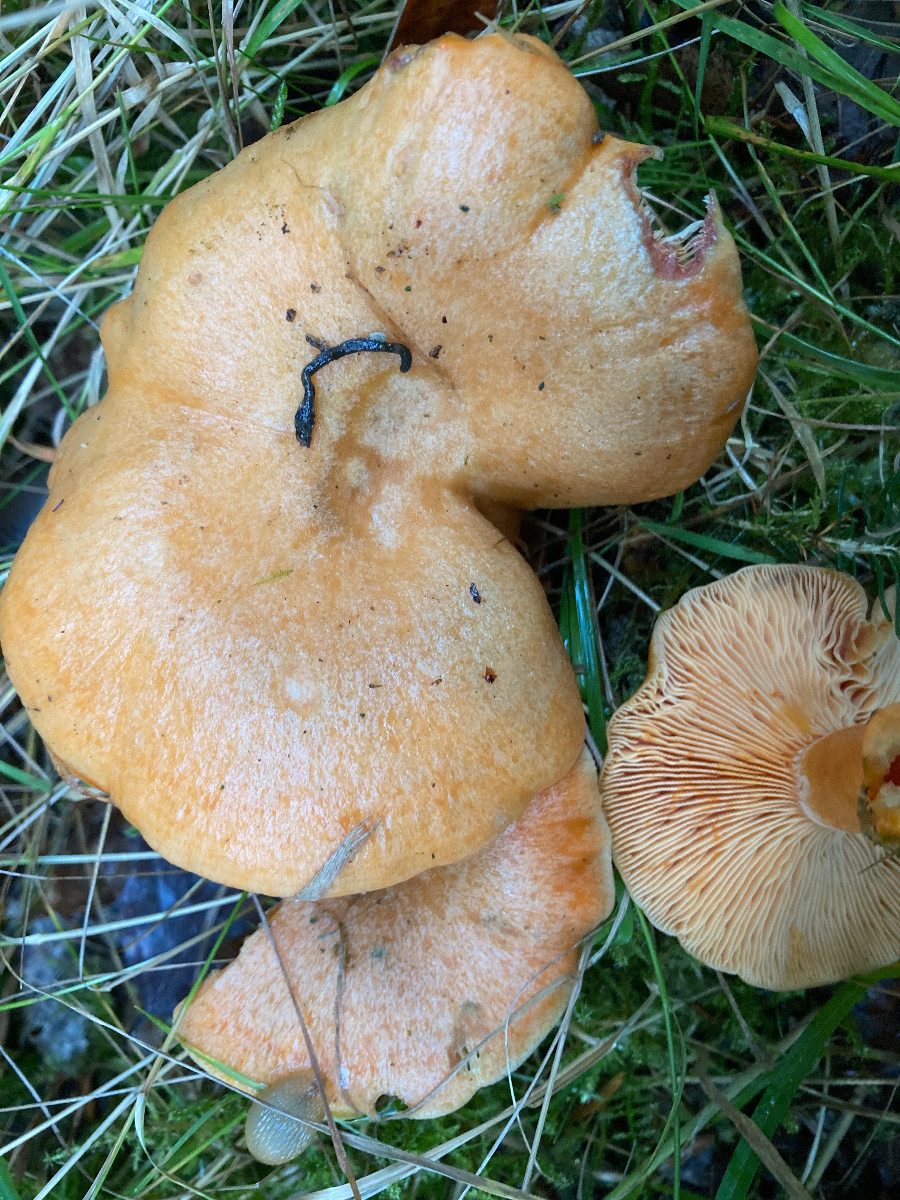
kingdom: Fungi
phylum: Basidiomycota
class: Agaricomycetes
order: Russulales
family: Russulaceae
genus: Lactarius
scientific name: Lactarius deterrimus
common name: gran-mælkehat
